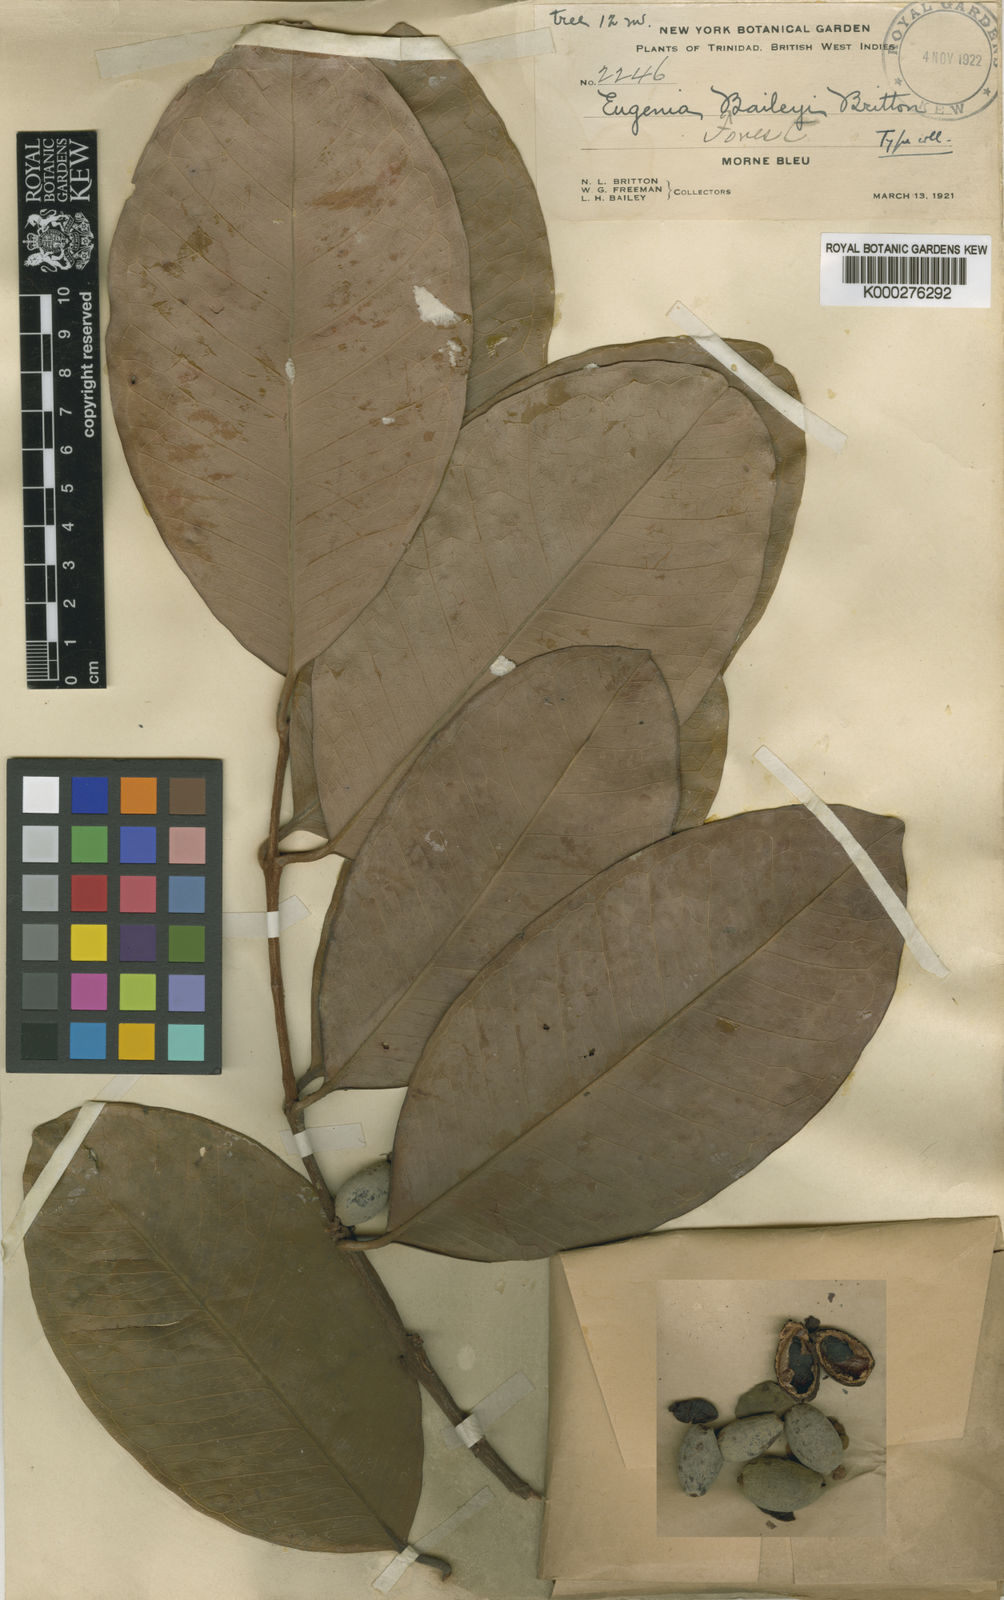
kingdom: Plantae
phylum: Tracheophyta
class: Magnoliopsida
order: Myrtales
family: Myrtaceae
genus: Eugenia
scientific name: Eugenia baileyi
